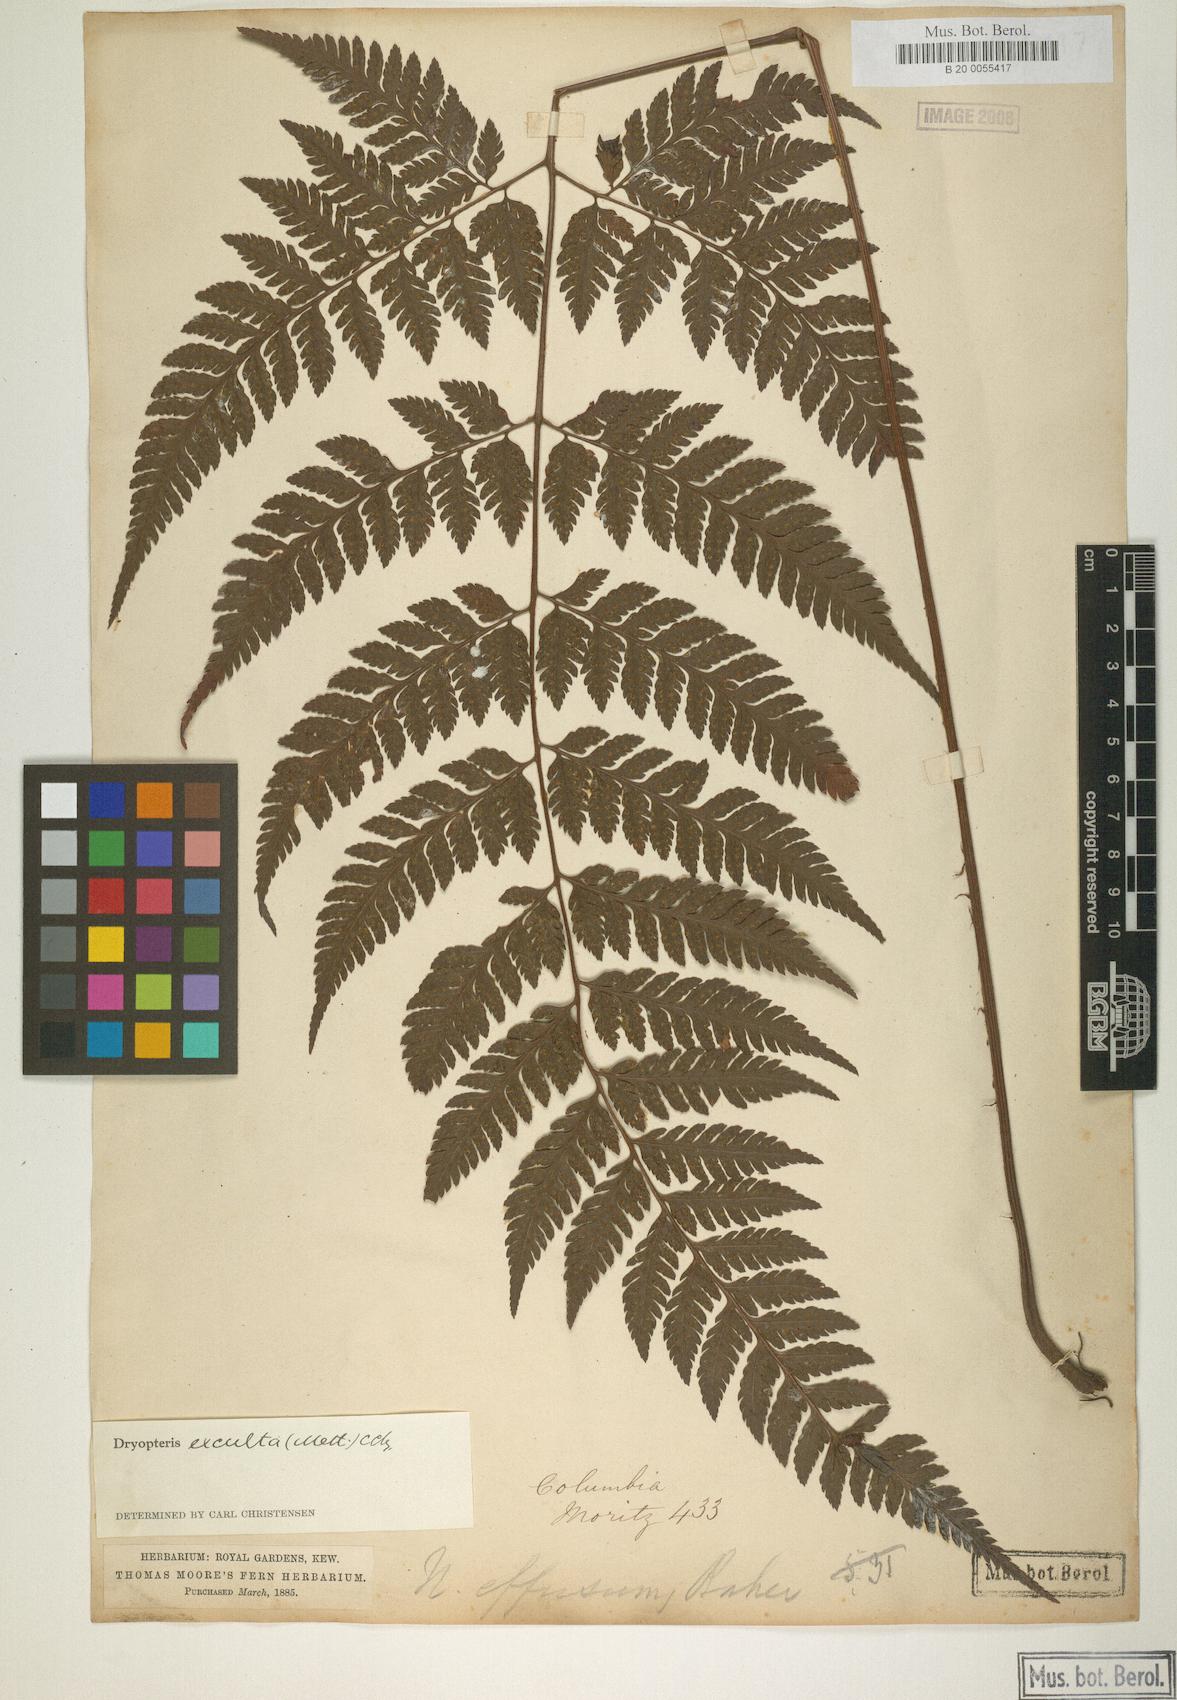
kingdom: Plantae
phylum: Tracheophyta
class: Polypodiopsida
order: Polypodiales
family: Dryopteridaceae
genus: Parapolystichum
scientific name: Parapolystichum excultum
